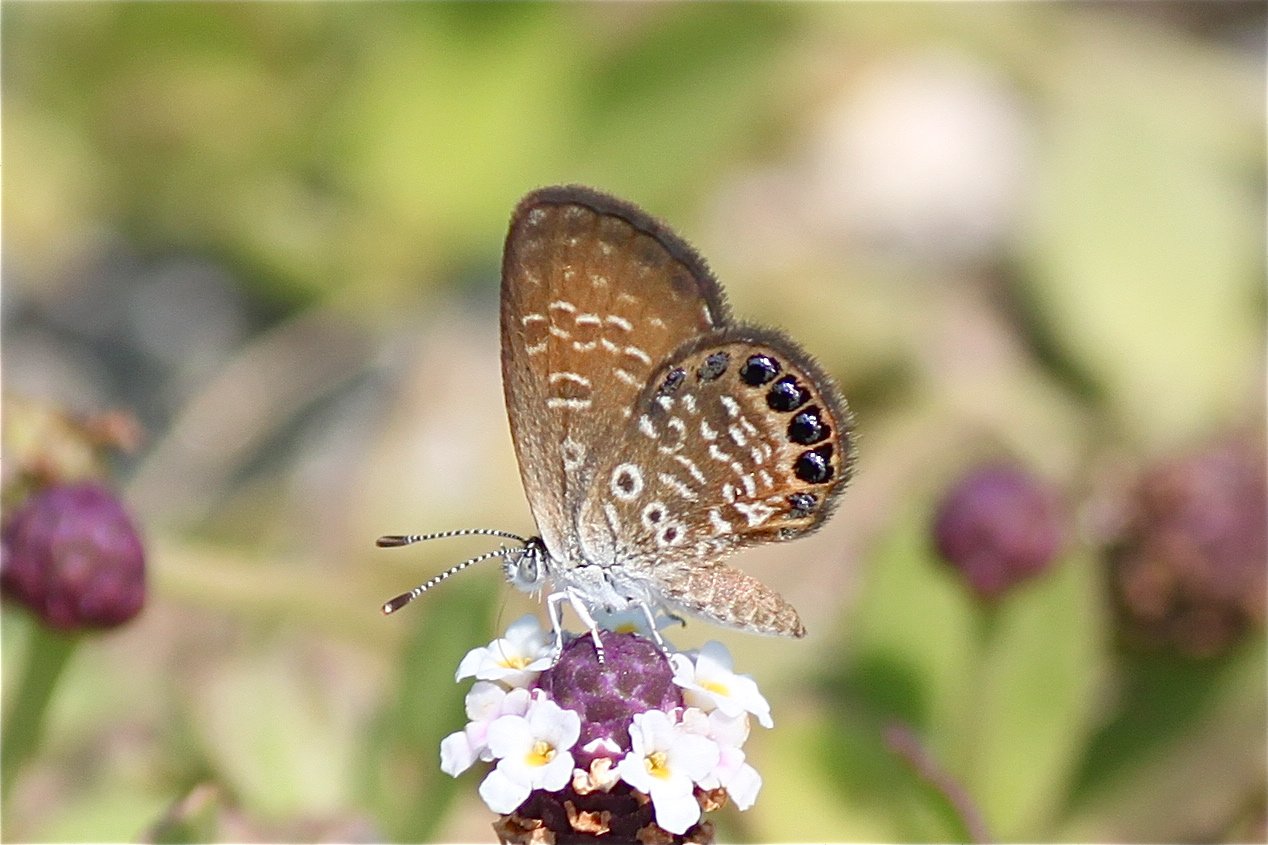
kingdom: Animalia
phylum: Arthropoda
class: Insecta
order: Lepidoptera
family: Lycaenidae
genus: Brephidium
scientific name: Brephidium isophthalma
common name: Eastern Pygmy-Blue
